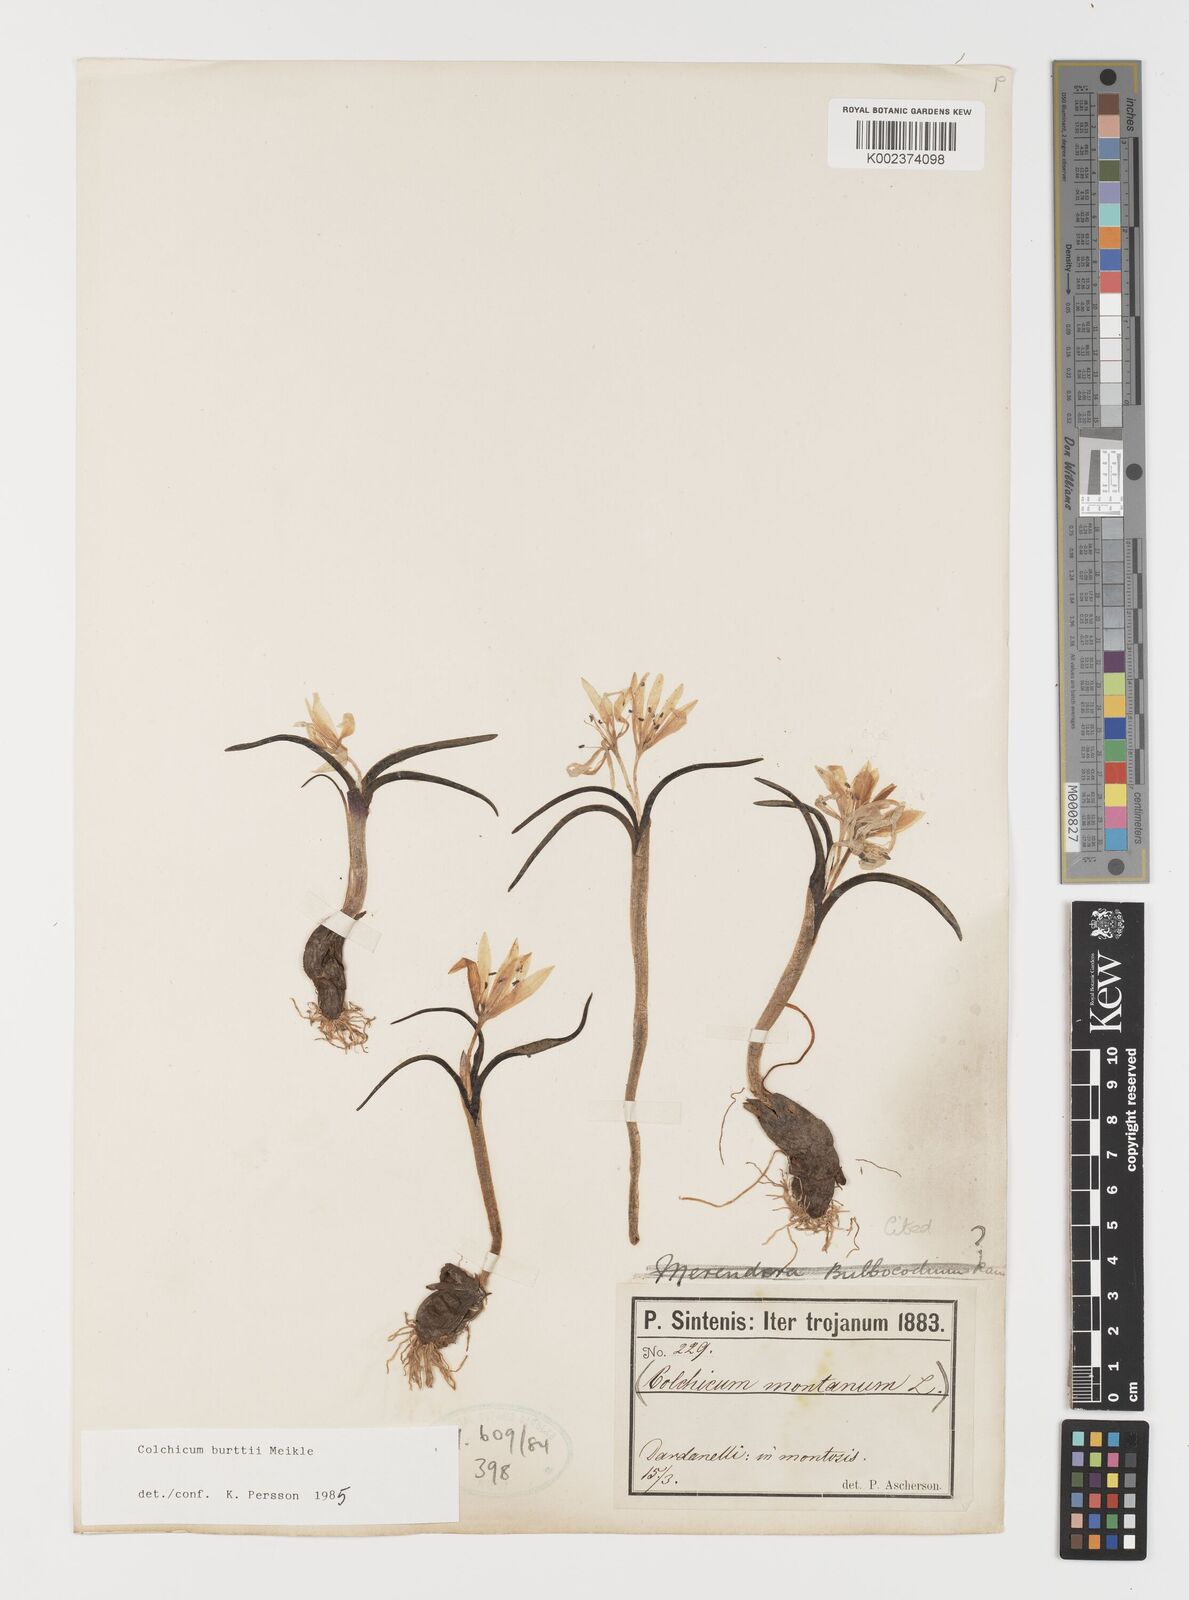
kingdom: Plantae
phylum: Tracheophyta
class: Liliopsida
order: Liliales
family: Colchicaceae
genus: Colchicum
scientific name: Colchicum burttii
